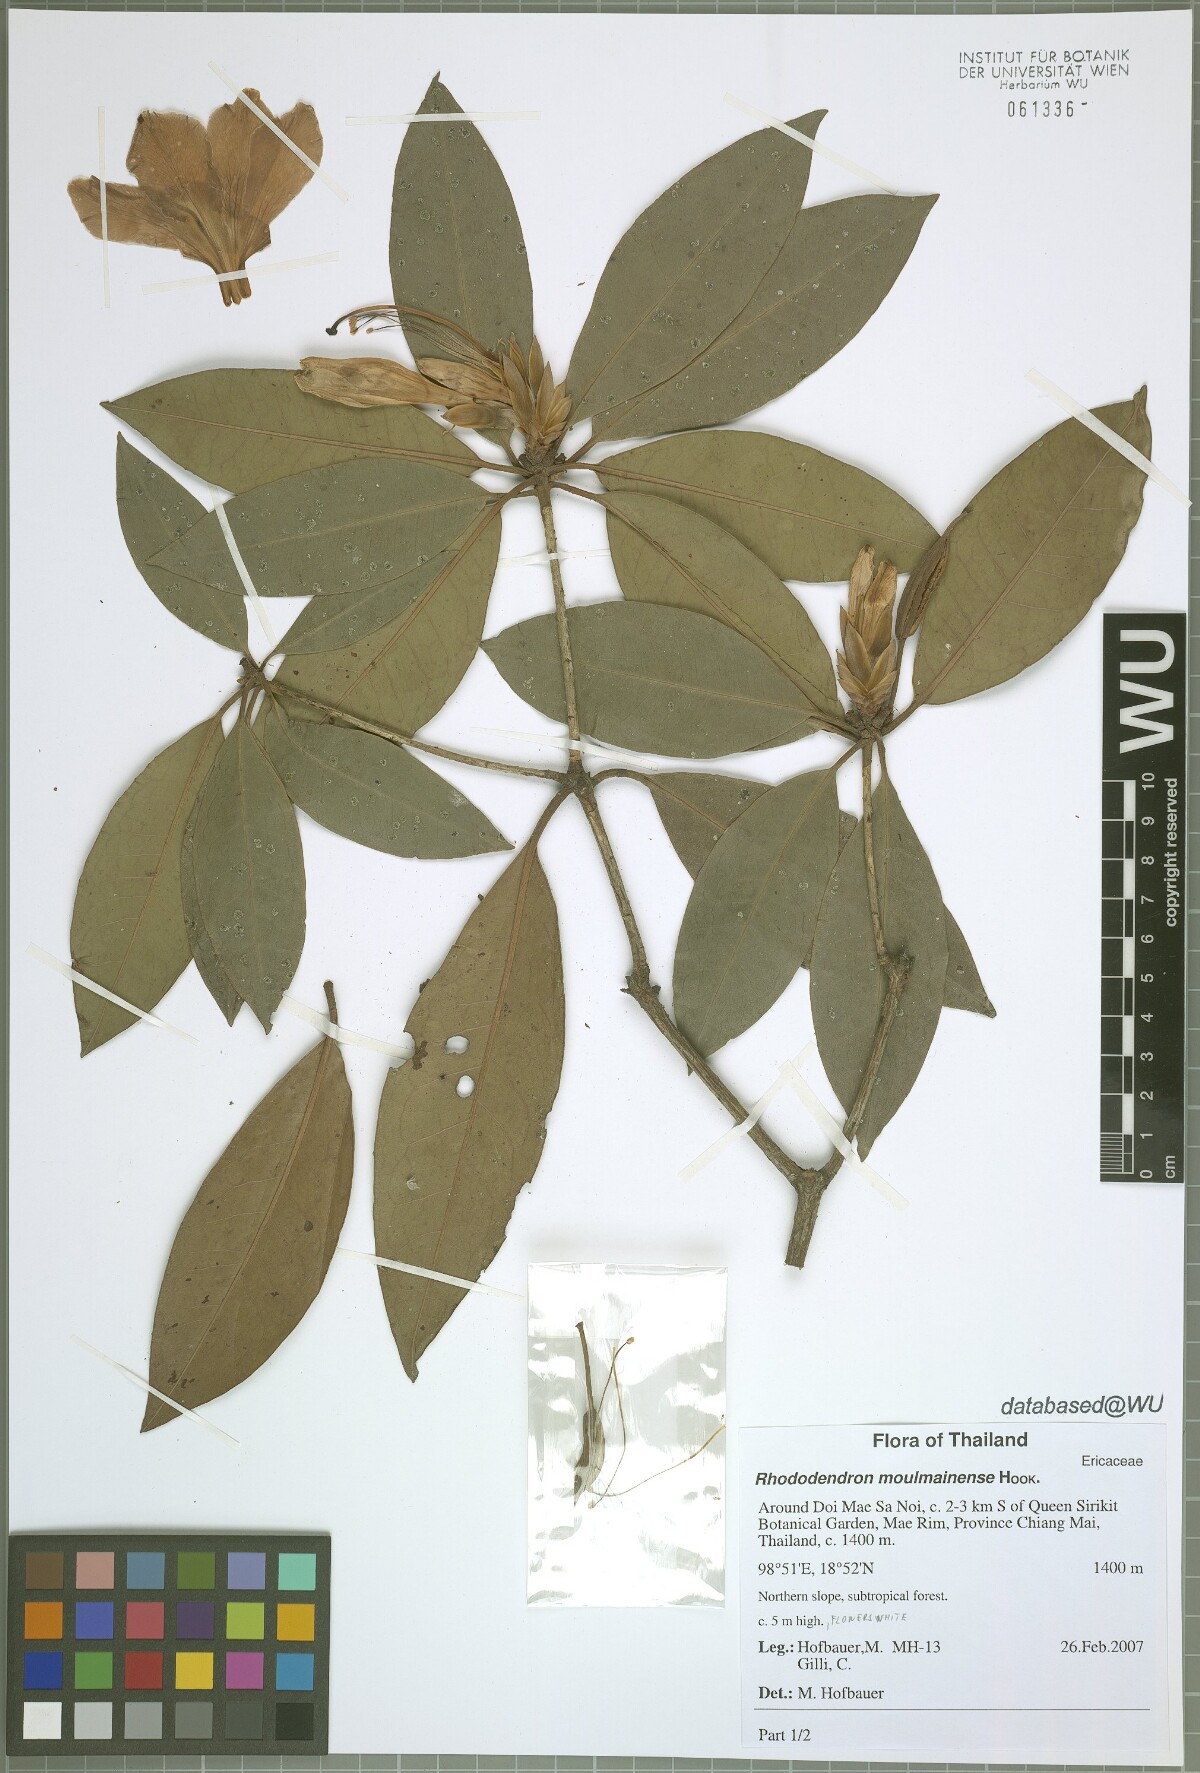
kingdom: Plantae
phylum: Tracheophyta
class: Magnoliopsida
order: Ericales
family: Ericaceae
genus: Rhododendron
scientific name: Rhododendron moulmainense
